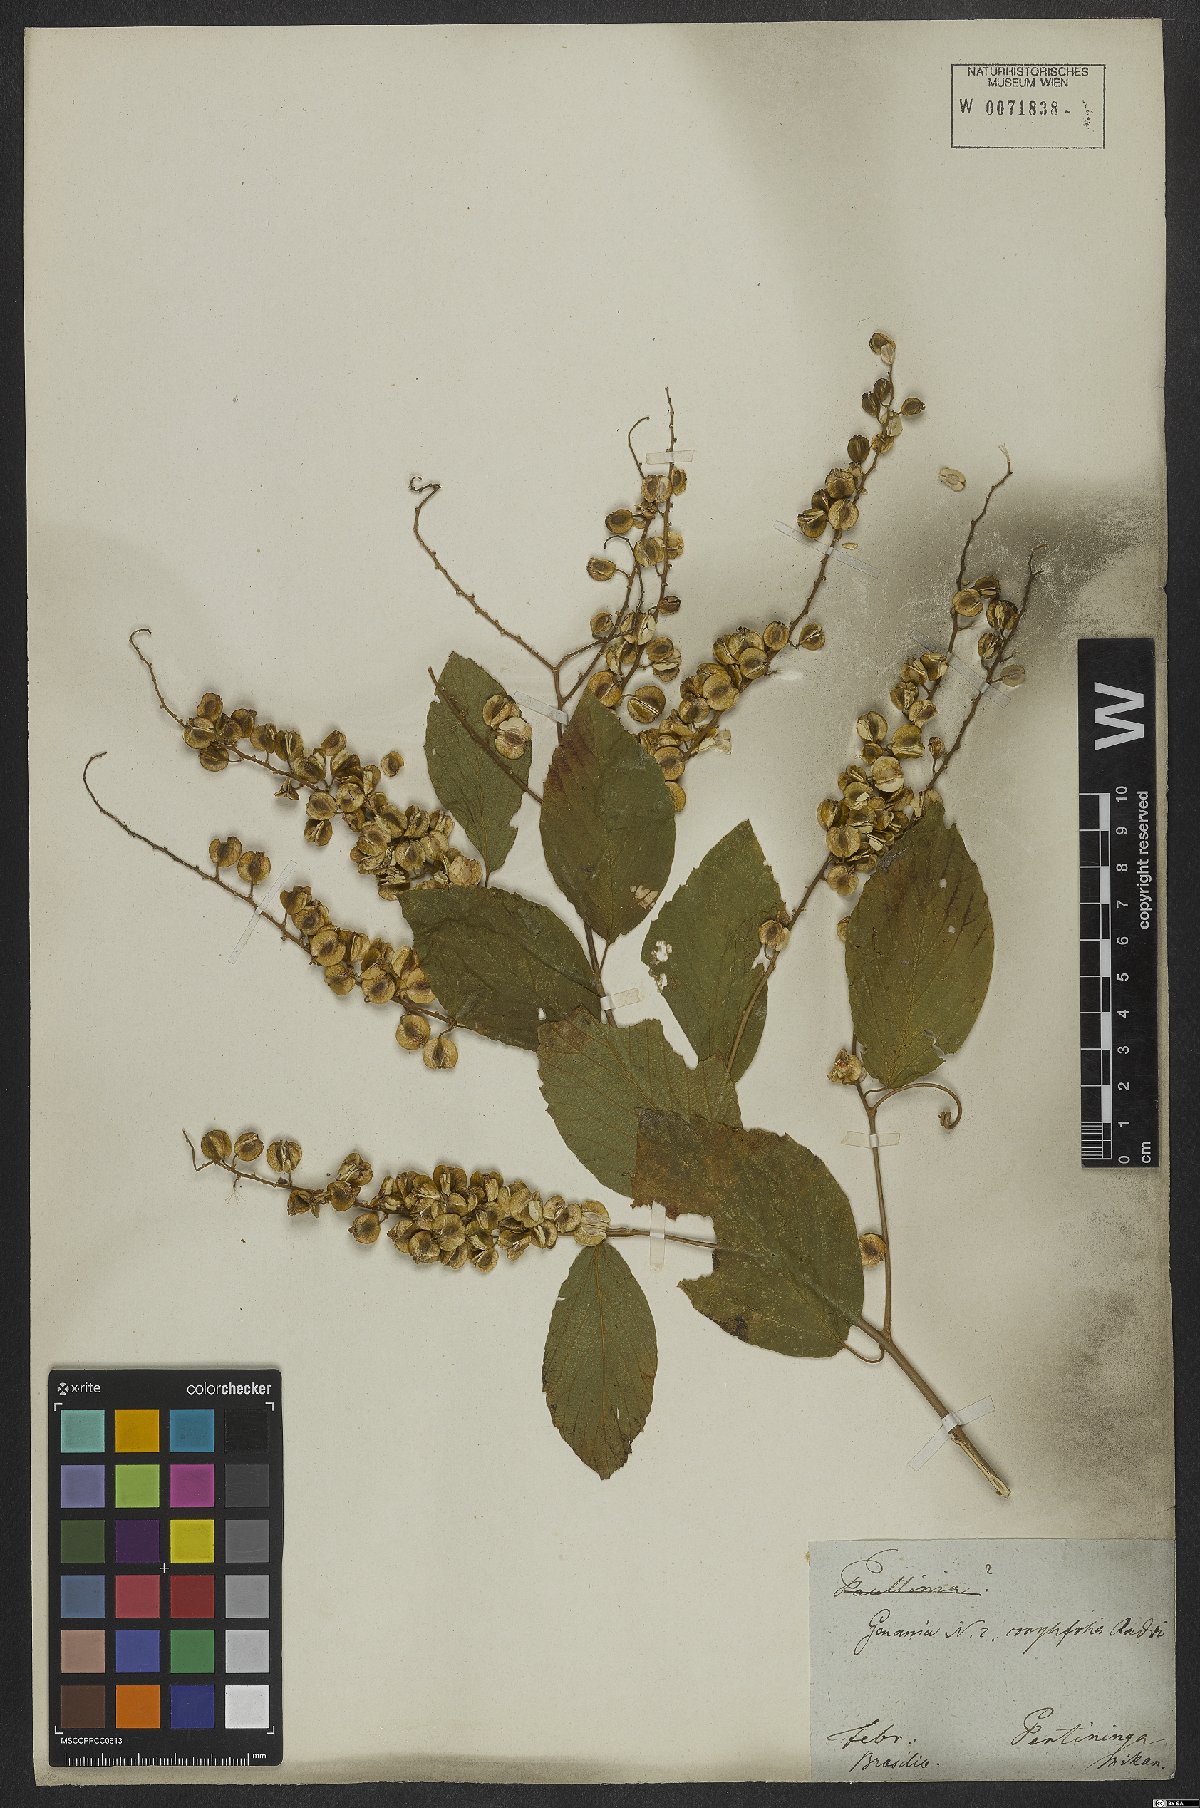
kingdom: Plantae
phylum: Tracheophyta
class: Magnoliopsida
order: Rosales
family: Rhamnaceae
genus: Gouania
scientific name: Gouania corylifolia
